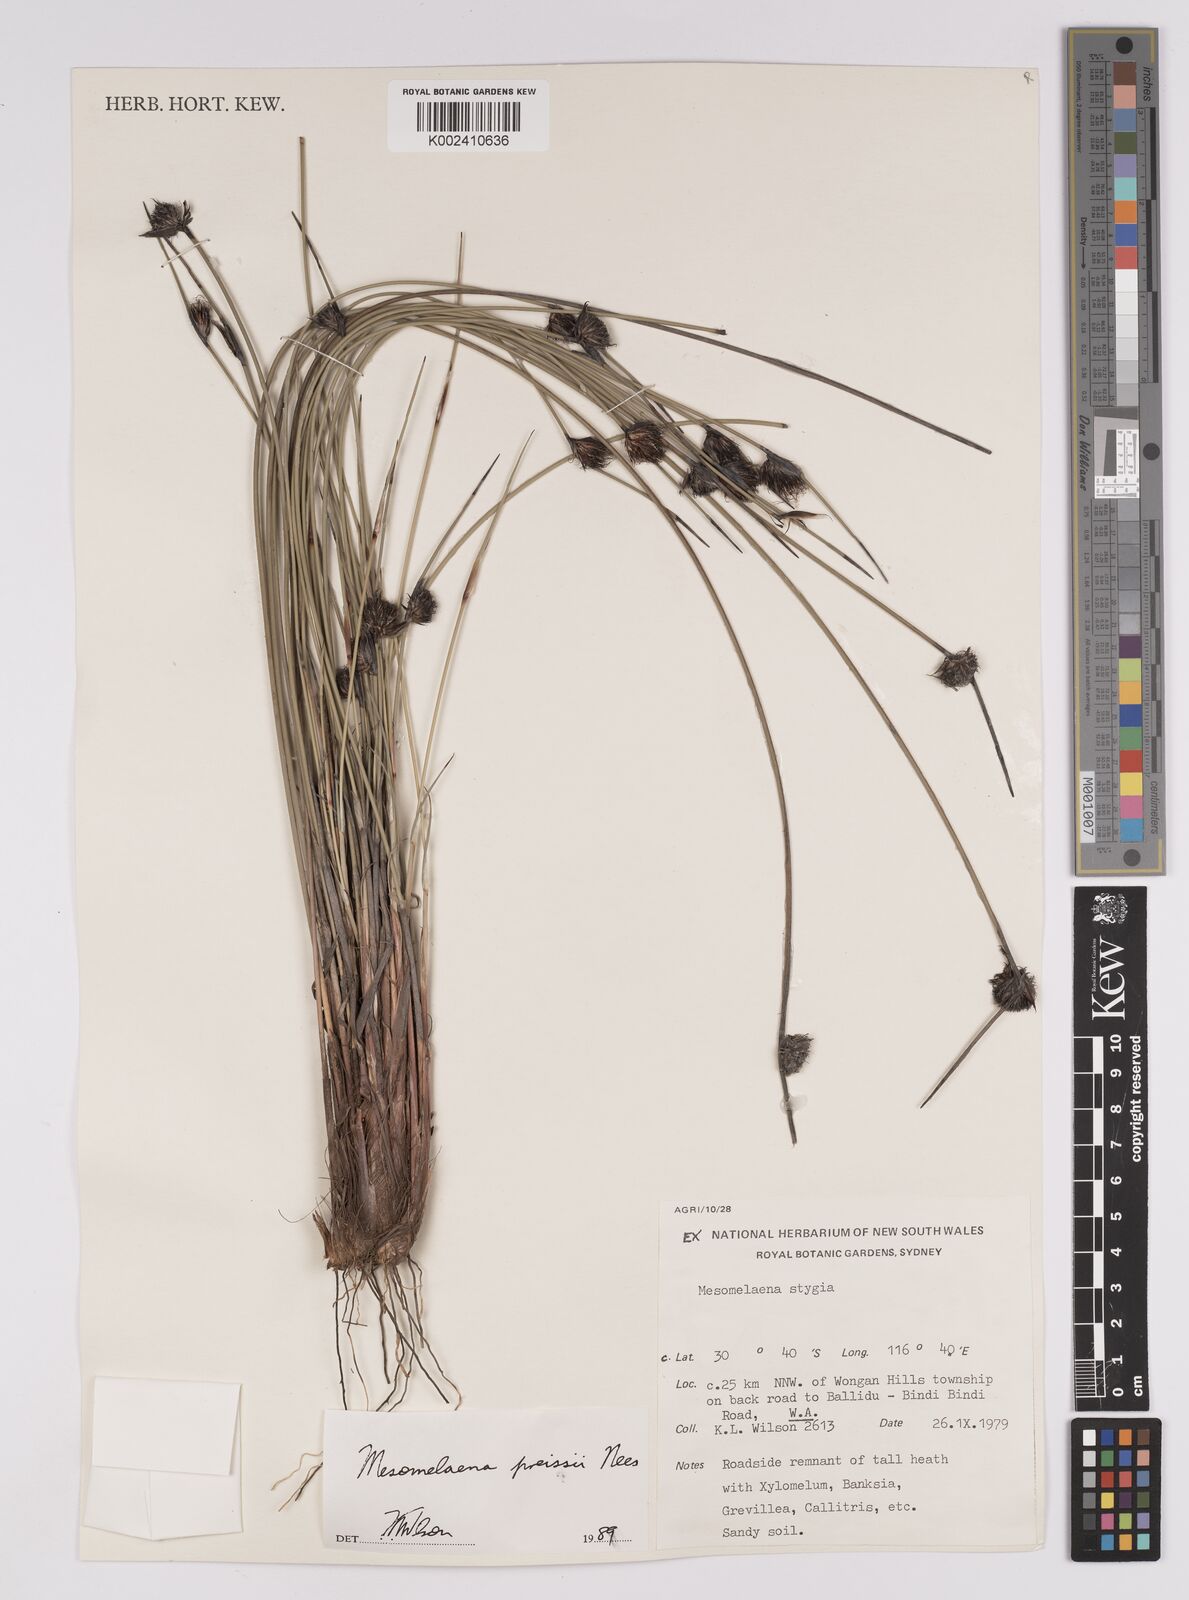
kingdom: Plantae
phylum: Tracheophyta
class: Liliopsida
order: Poales
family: Cyperaceae
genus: Mesomelaena
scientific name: Mesomelaena preissii
